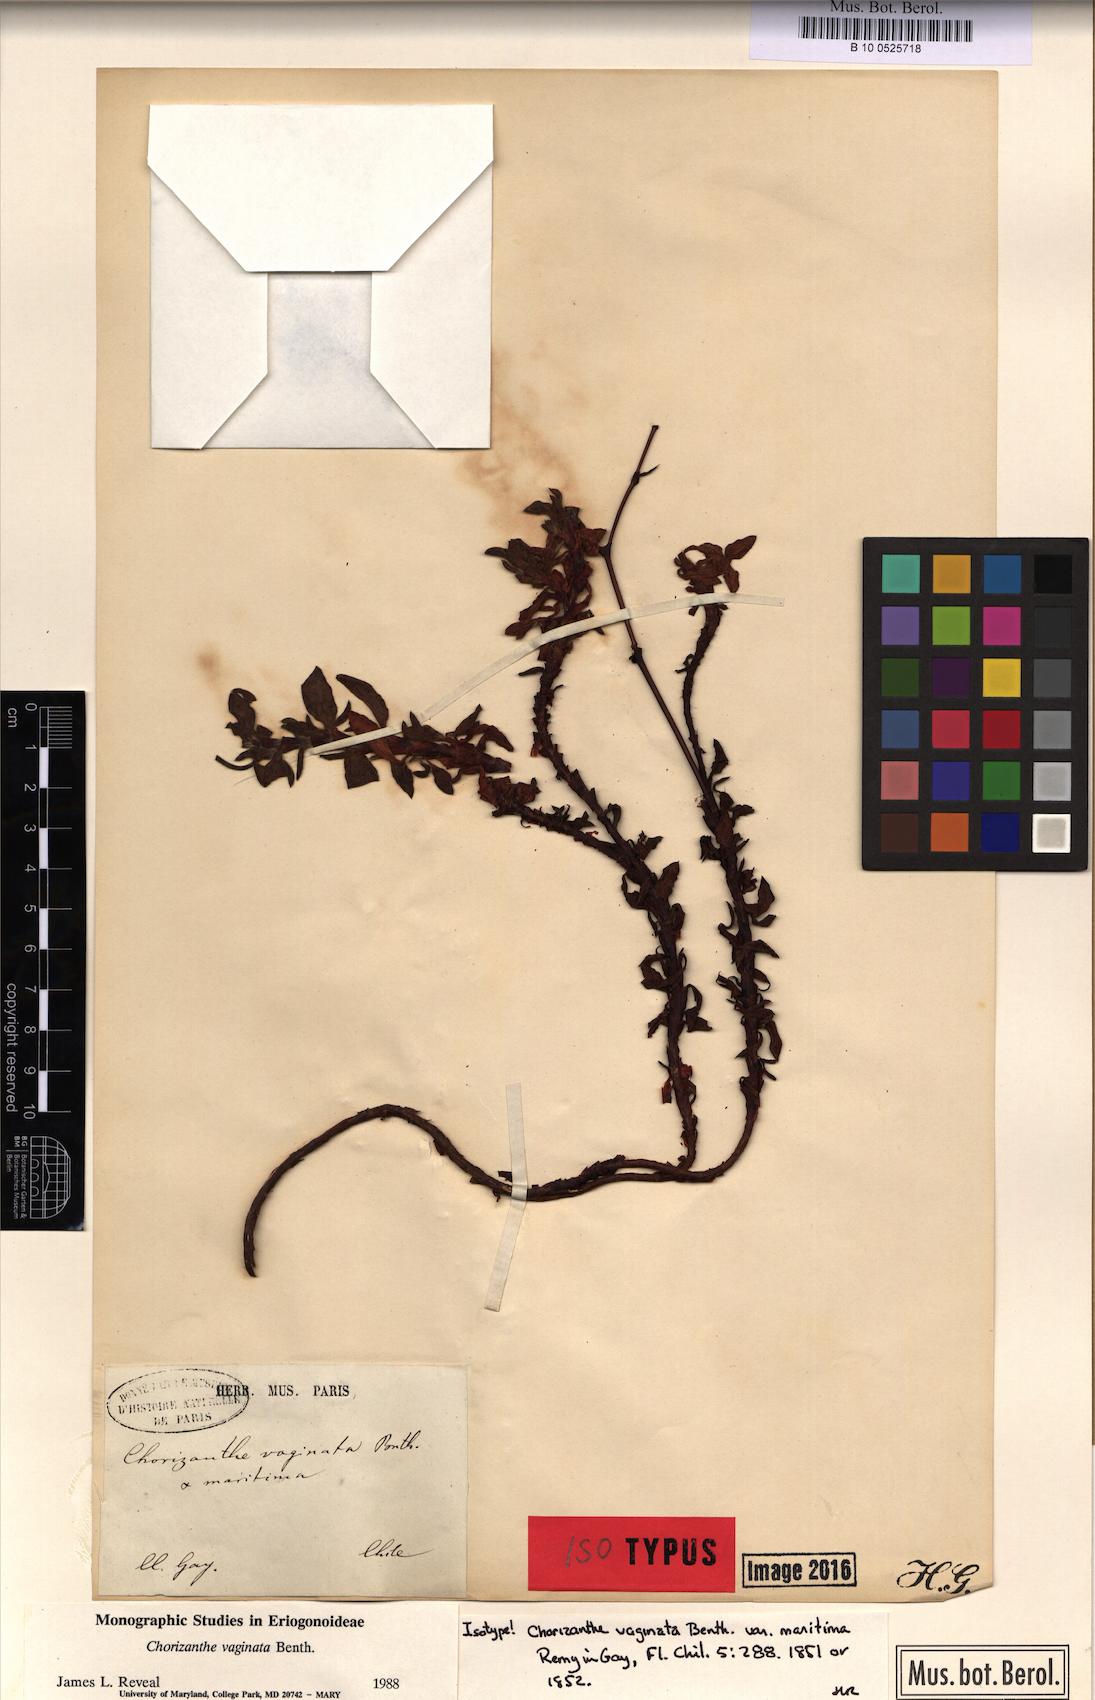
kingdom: Plantae
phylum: Tracheophyta
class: Magnoliopsida
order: Caryophyllales
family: Polygonaceae
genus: Chorizanthe
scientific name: Chorizanthe vaginata
